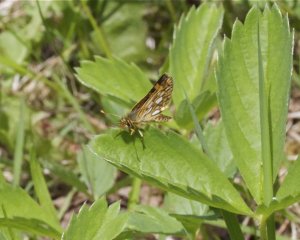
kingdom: Animalia
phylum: Arthropoda
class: Insecta
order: Lepidoptera
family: Hesperiidae
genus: Carterocephalus
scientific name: Carterocephalus palaemon
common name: Chequered Skipper
